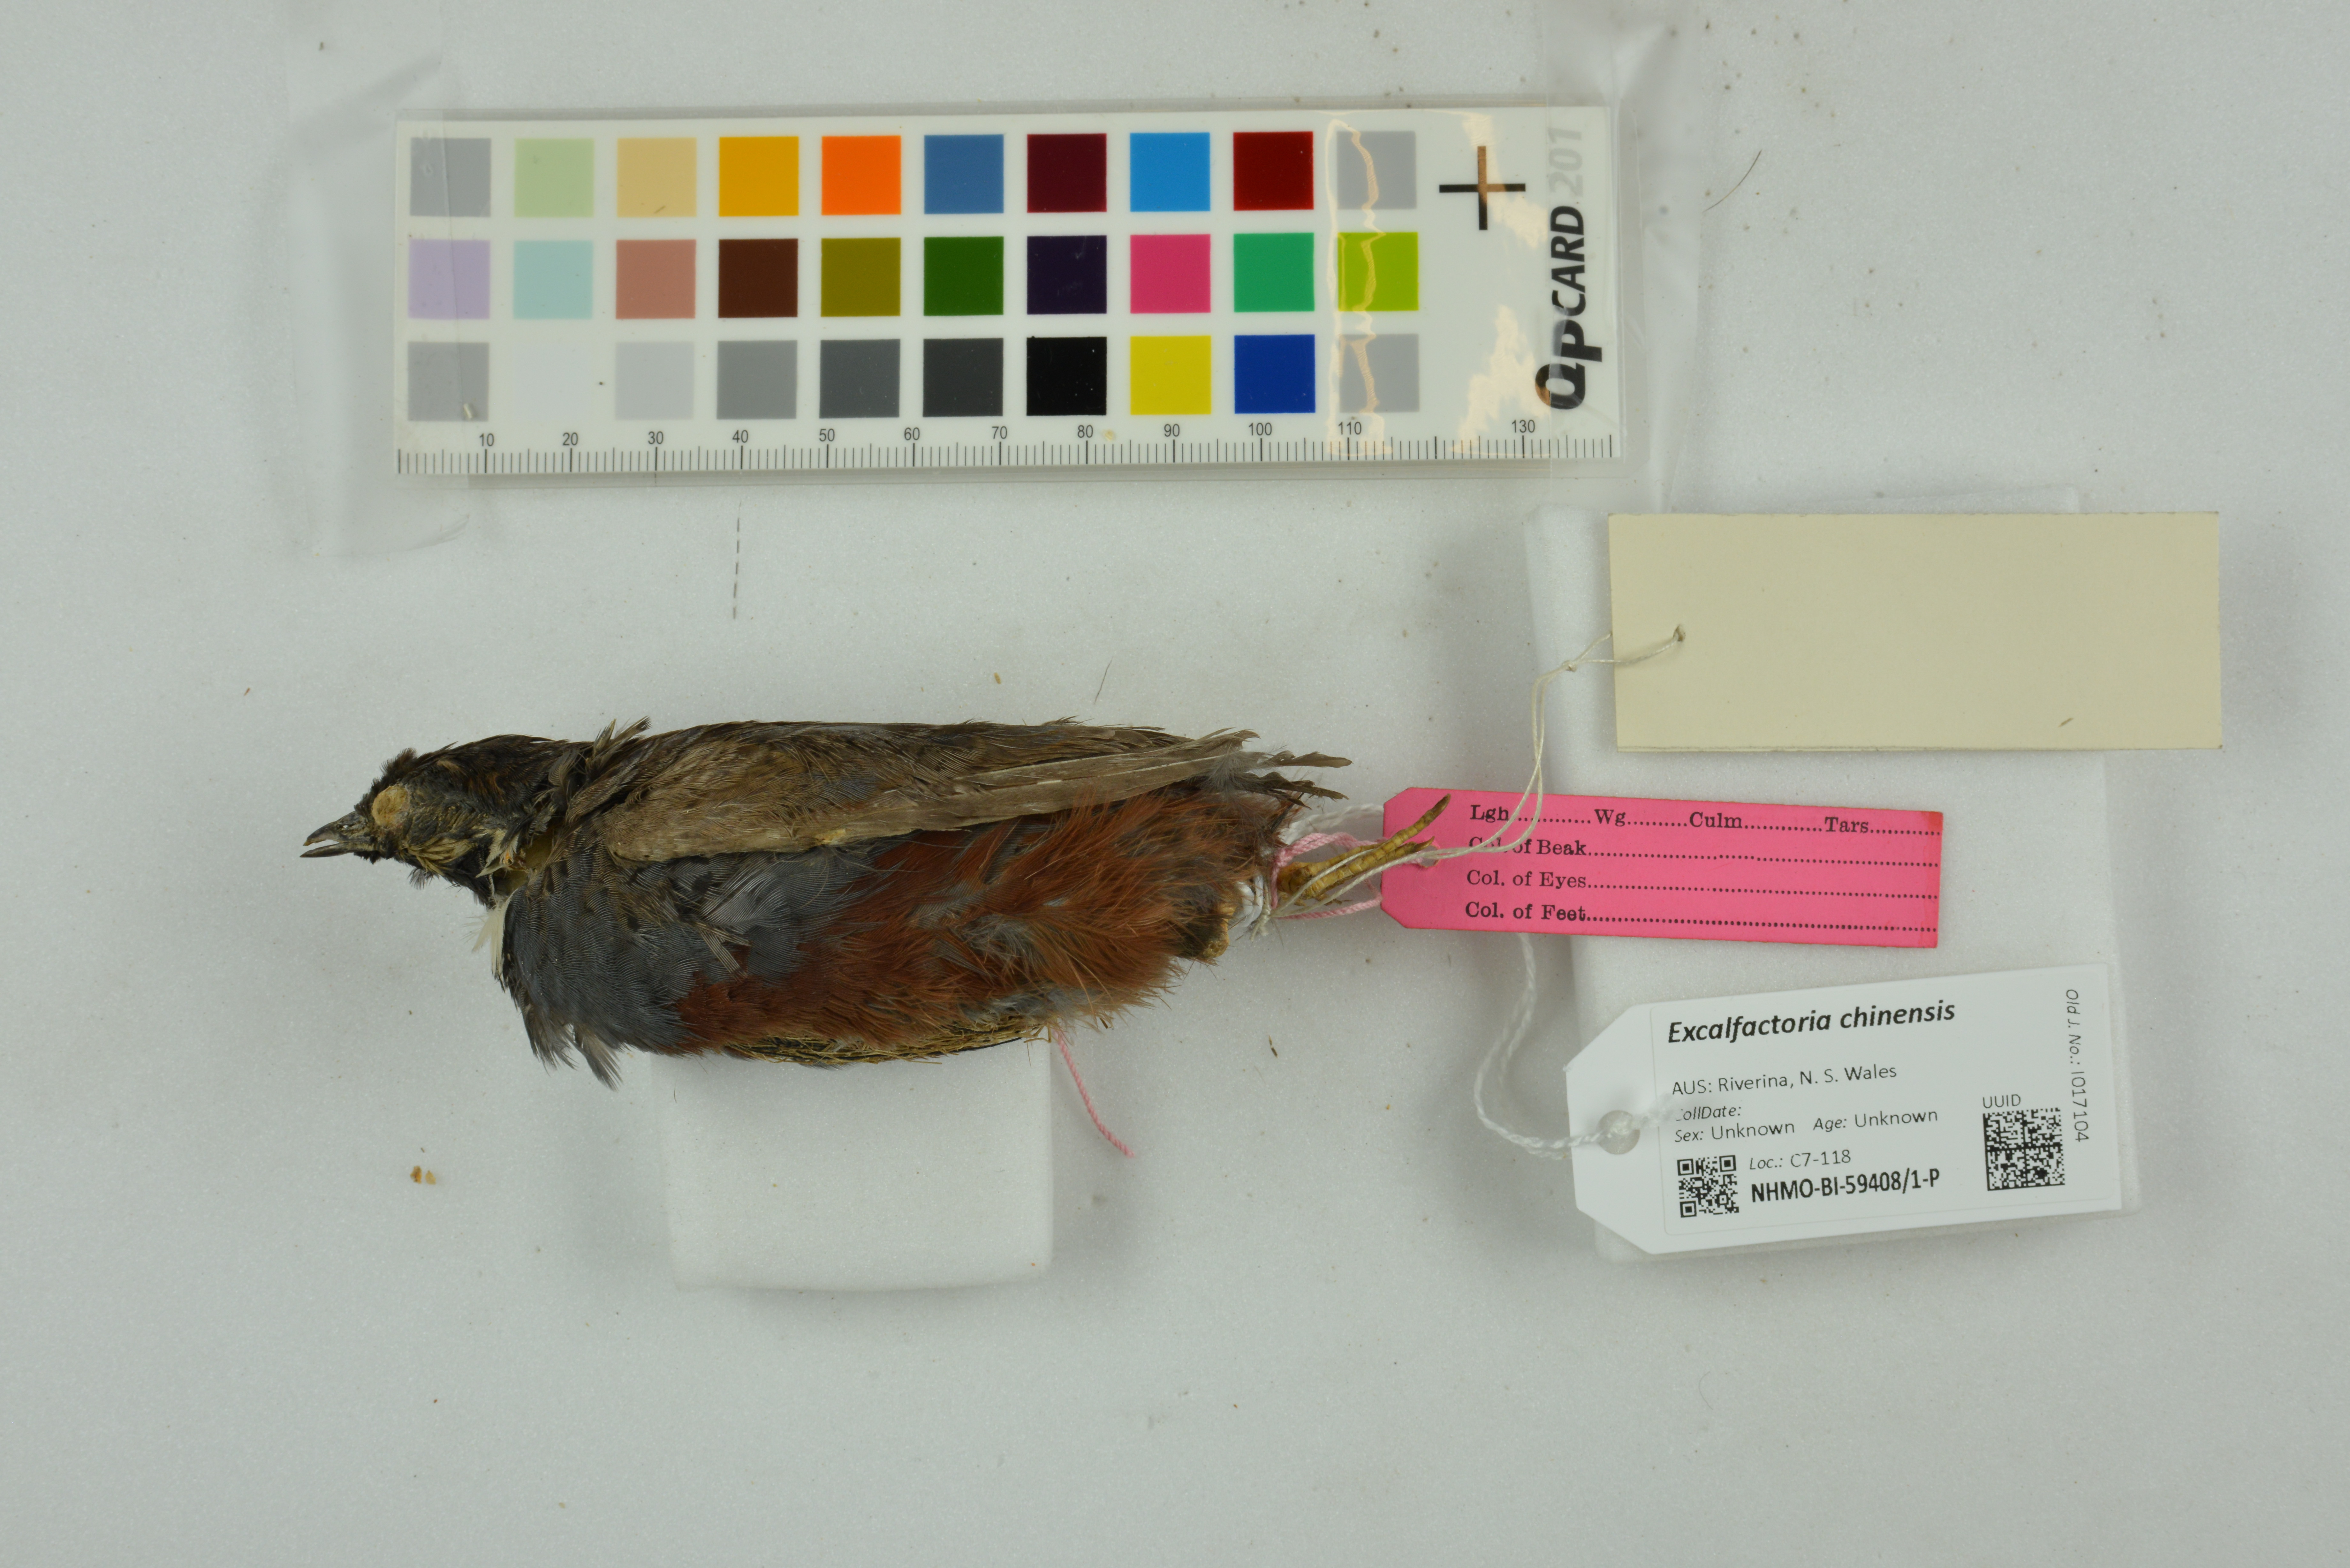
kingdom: Animalia
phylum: Chordata
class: Aves
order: Galliformes
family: Phasianidae
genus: Synoicus
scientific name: Synoicus chinensis
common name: Blue-breasted quail
